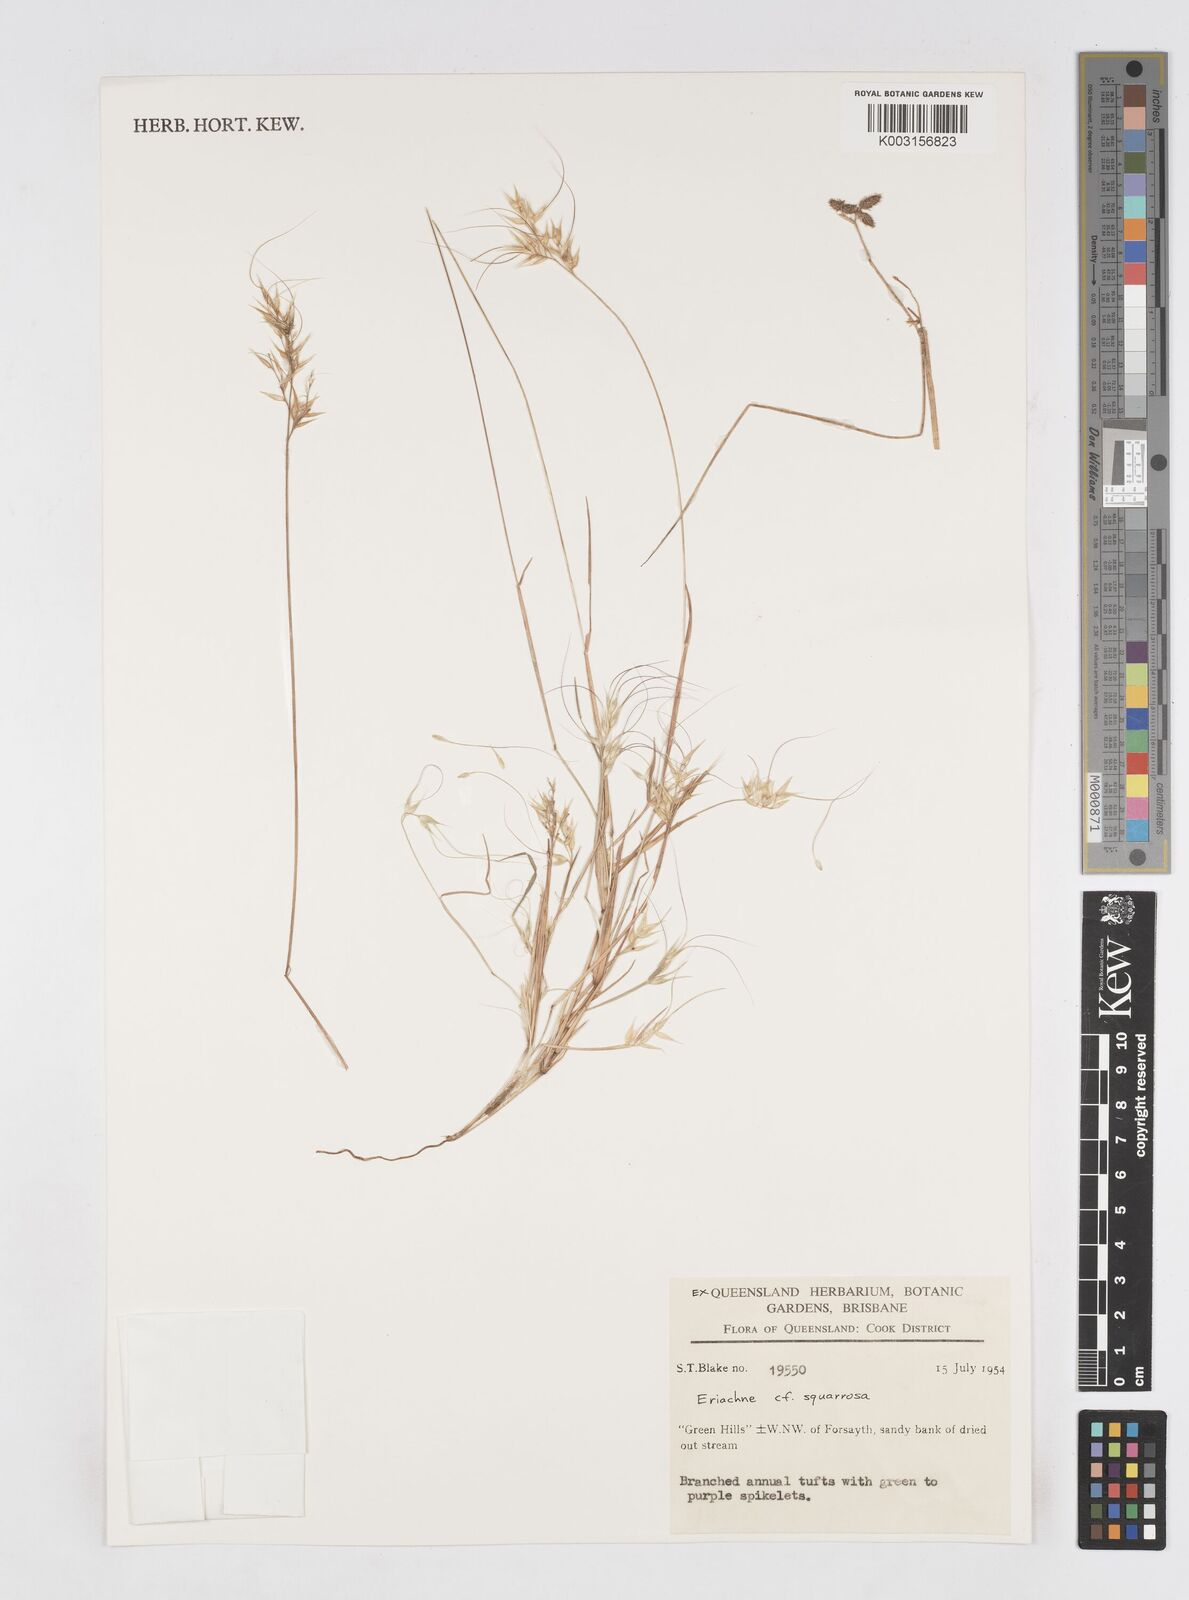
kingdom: Plantae
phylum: Tracheophyta
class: Liliopsida
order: Poales
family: Poaceae
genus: Eriachne
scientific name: Eriachne squarrosa
